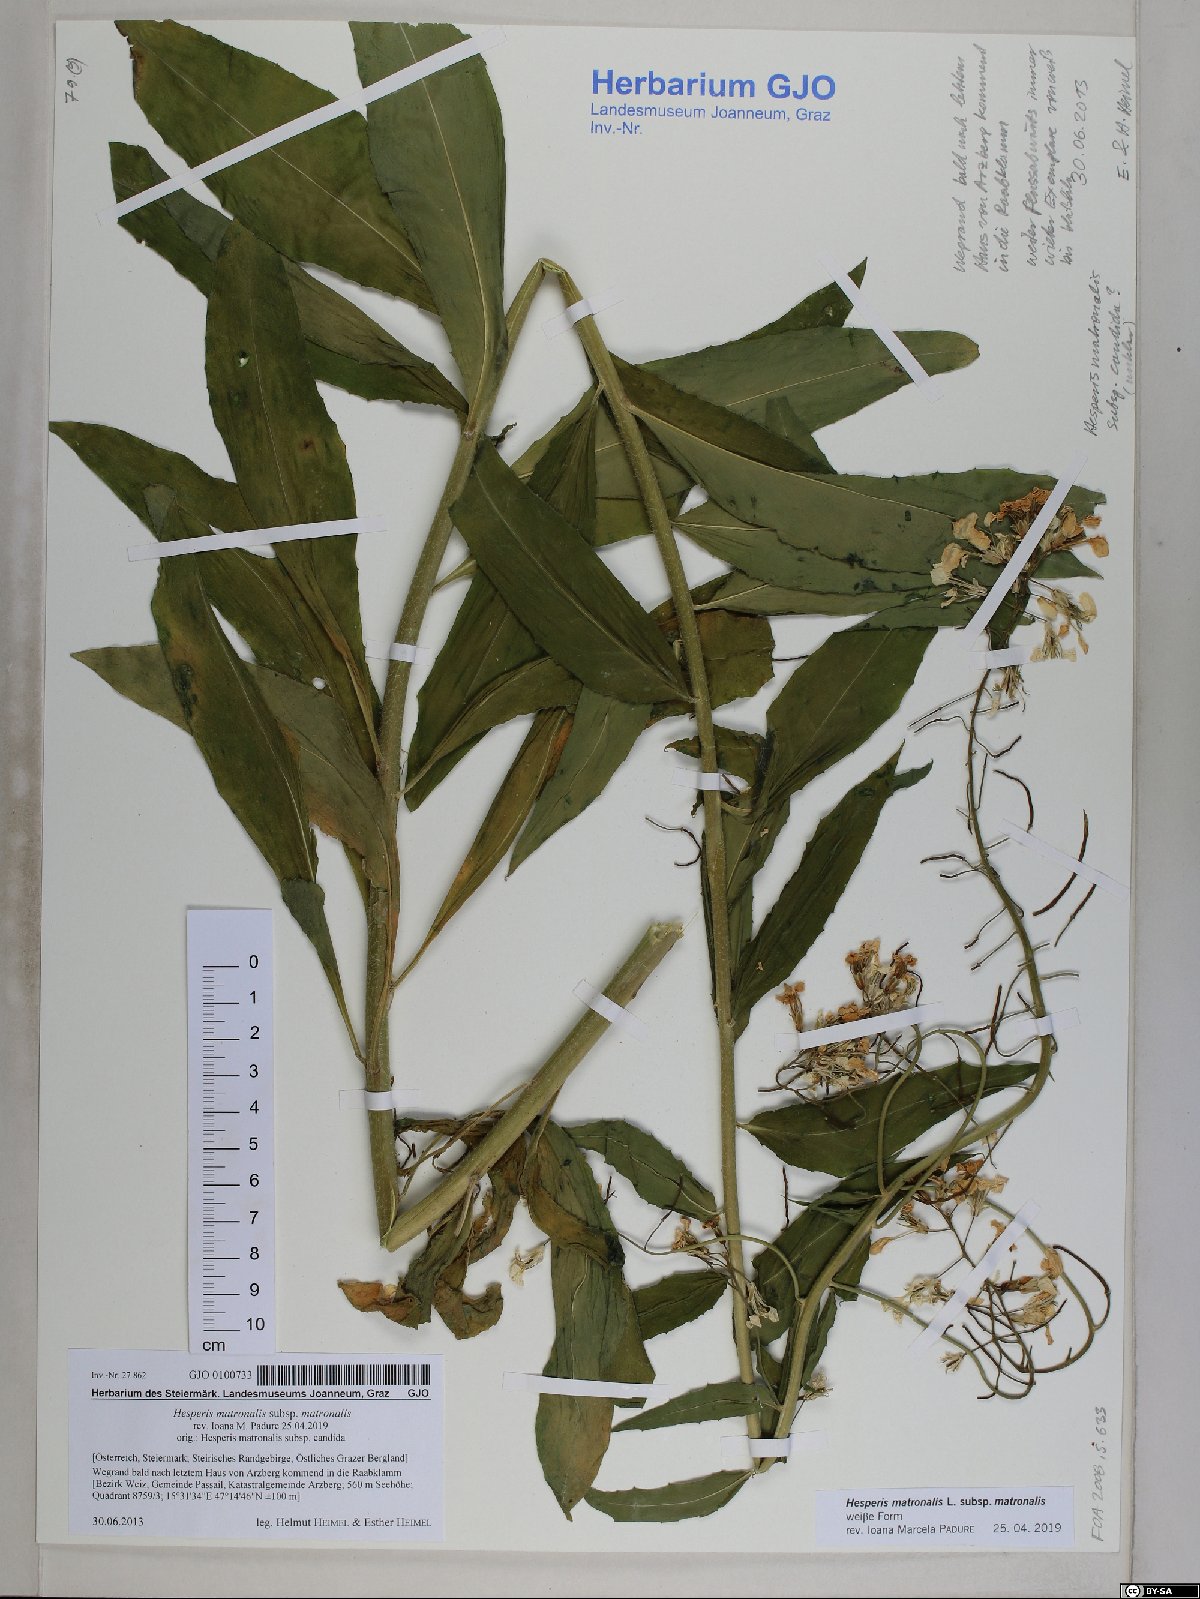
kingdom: Plantae
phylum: Tracheophyta
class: Magnoliopsida
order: Brassicales
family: Brassicaceae
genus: Hesperis
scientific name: Hesperis matronalis
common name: Dame's-violet
